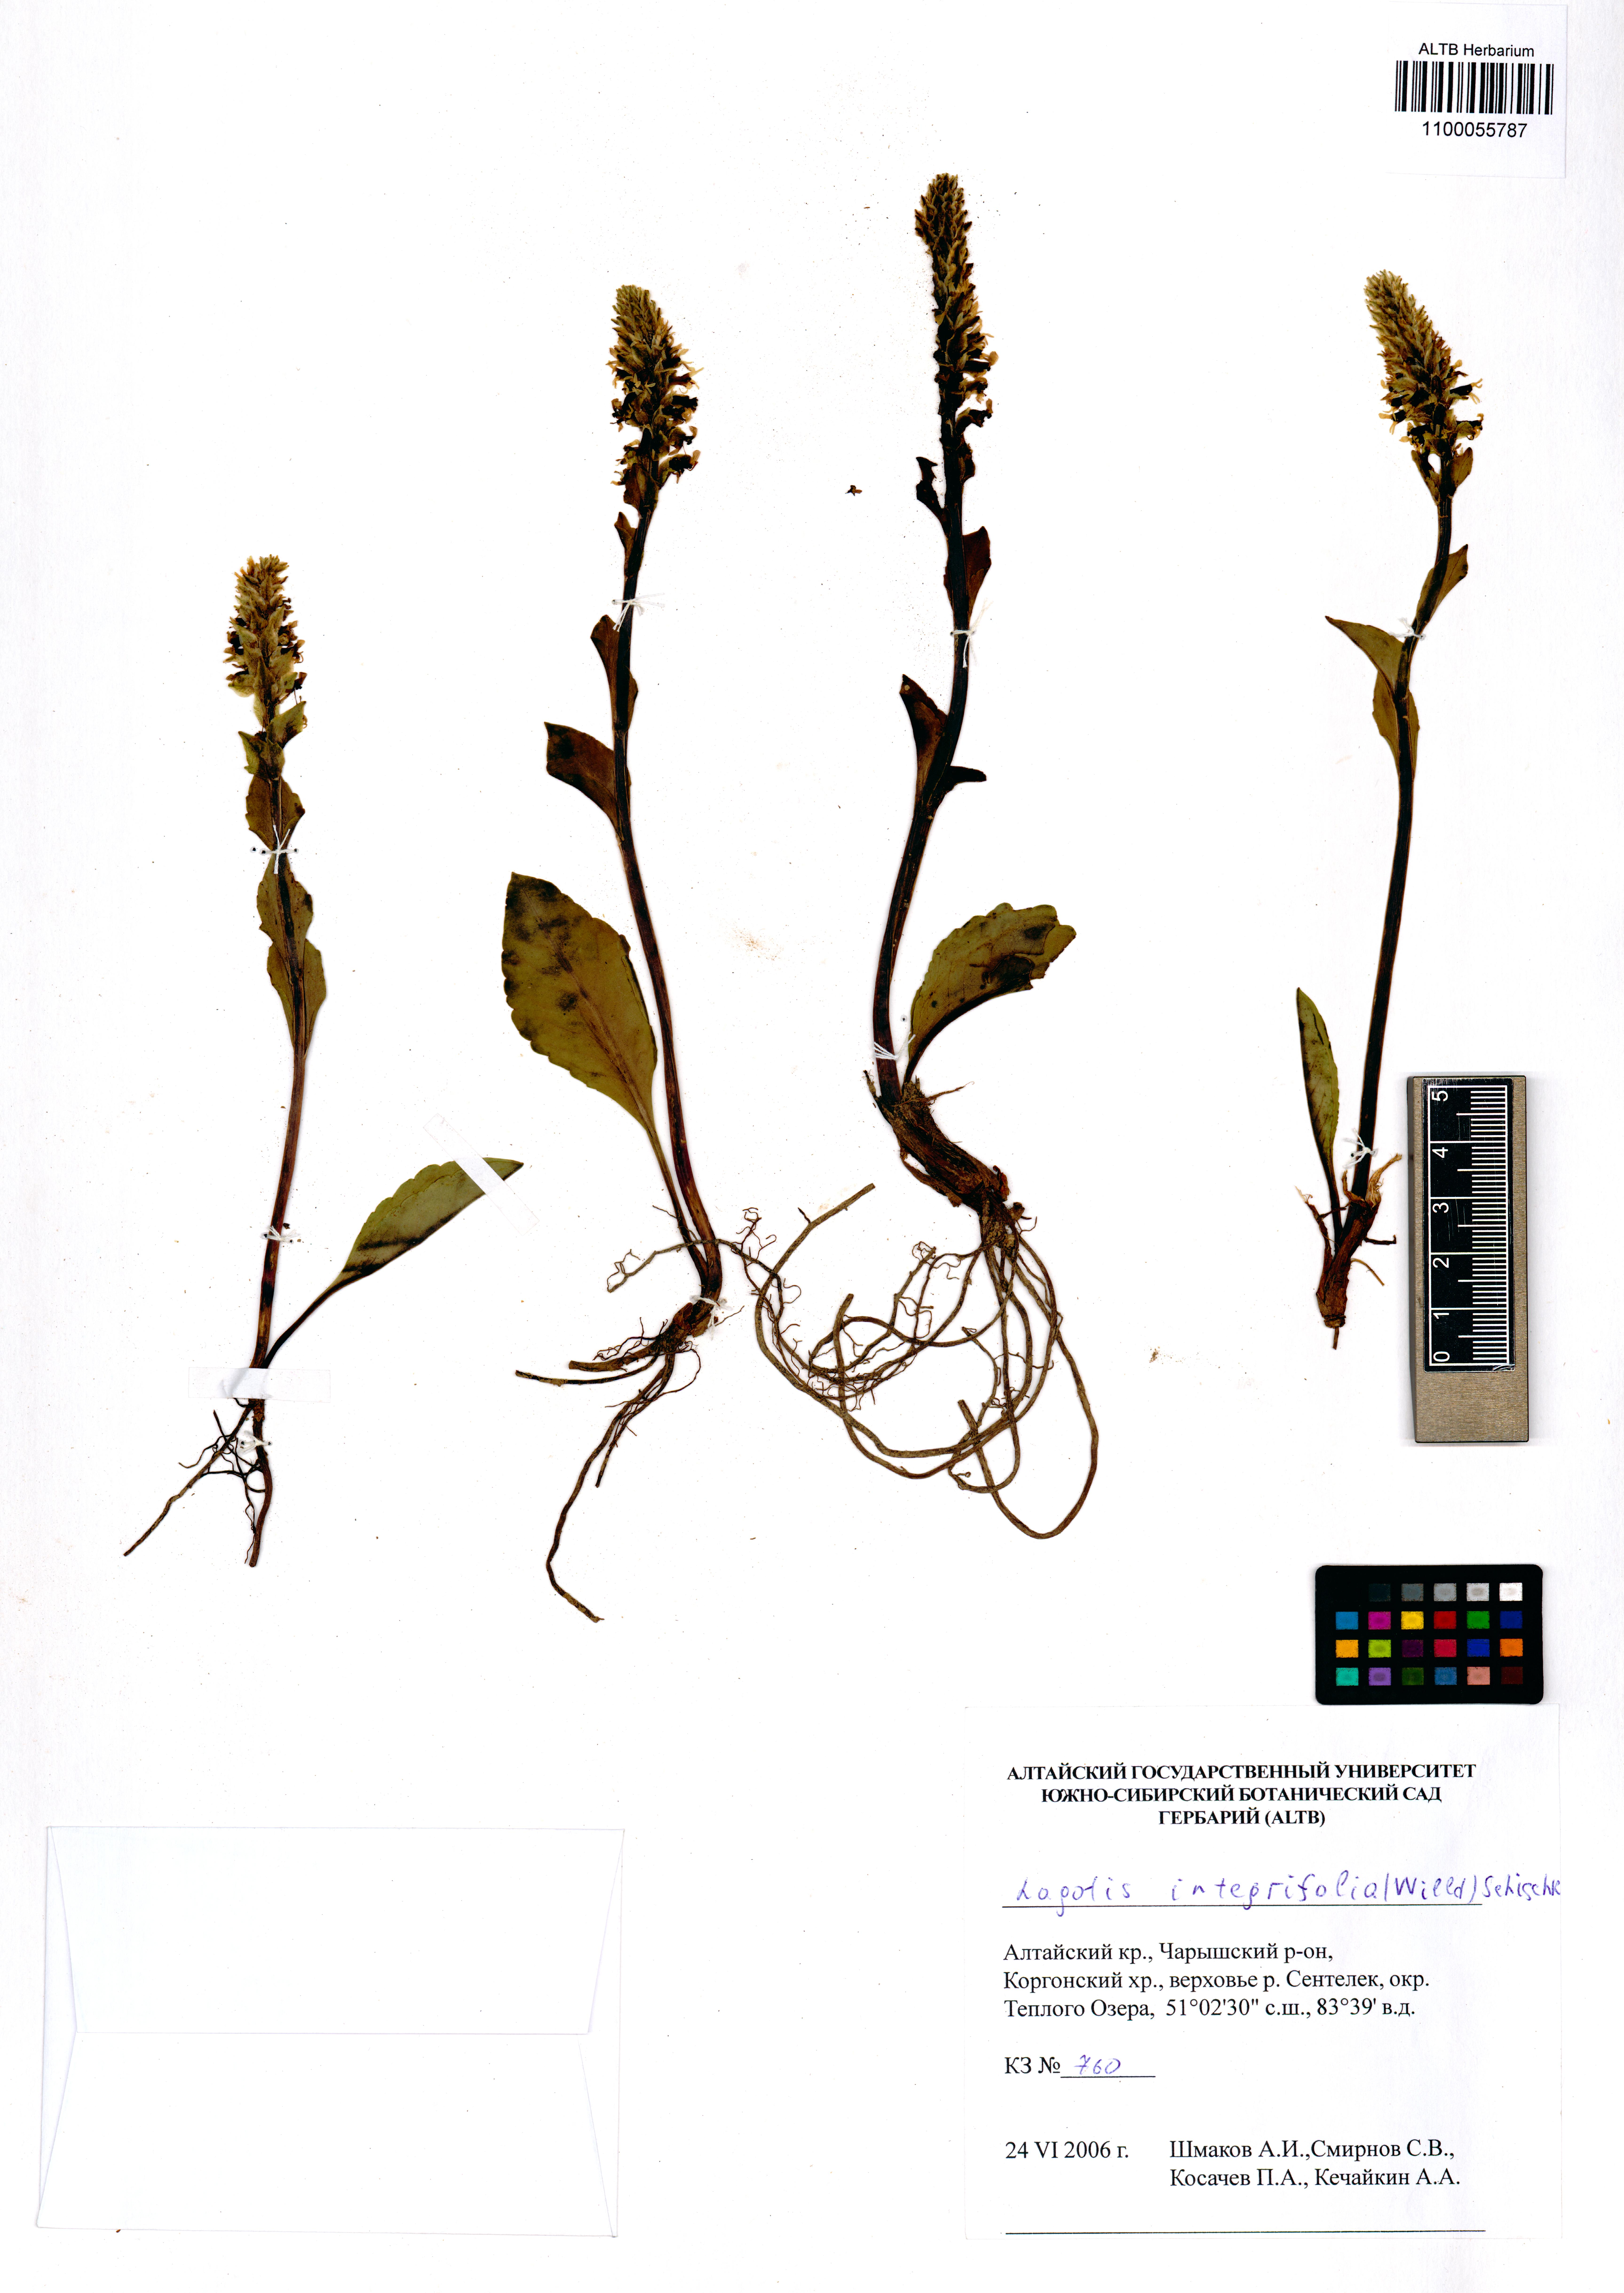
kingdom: Plantae
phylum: Tracheophyta
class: Magnoliopsida
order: Lamiales
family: Plantaginaceae
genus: Lagotis
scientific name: Lagotis integrifolia
